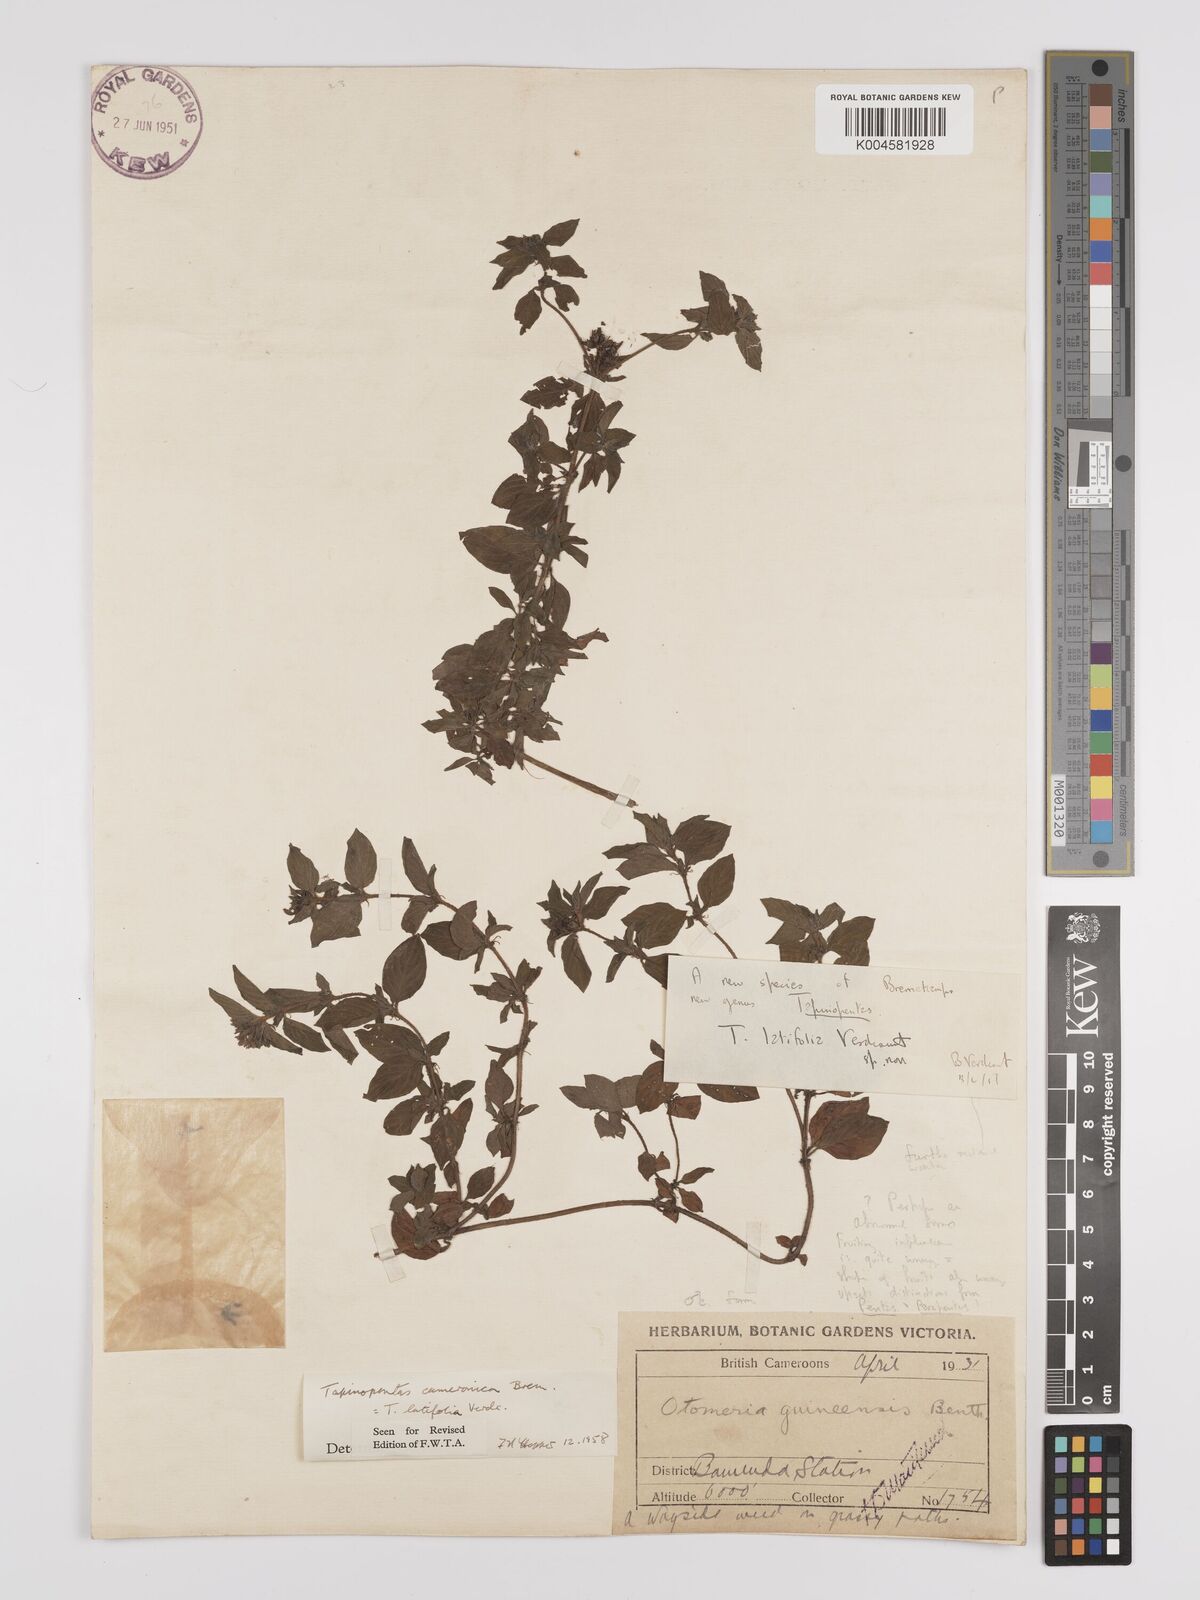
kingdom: Plantae
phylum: Tracheophyta
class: Magnoliopsida
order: Gentianales
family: Rubiaceae
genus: Otomeria
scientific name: Otomeria cameronica
